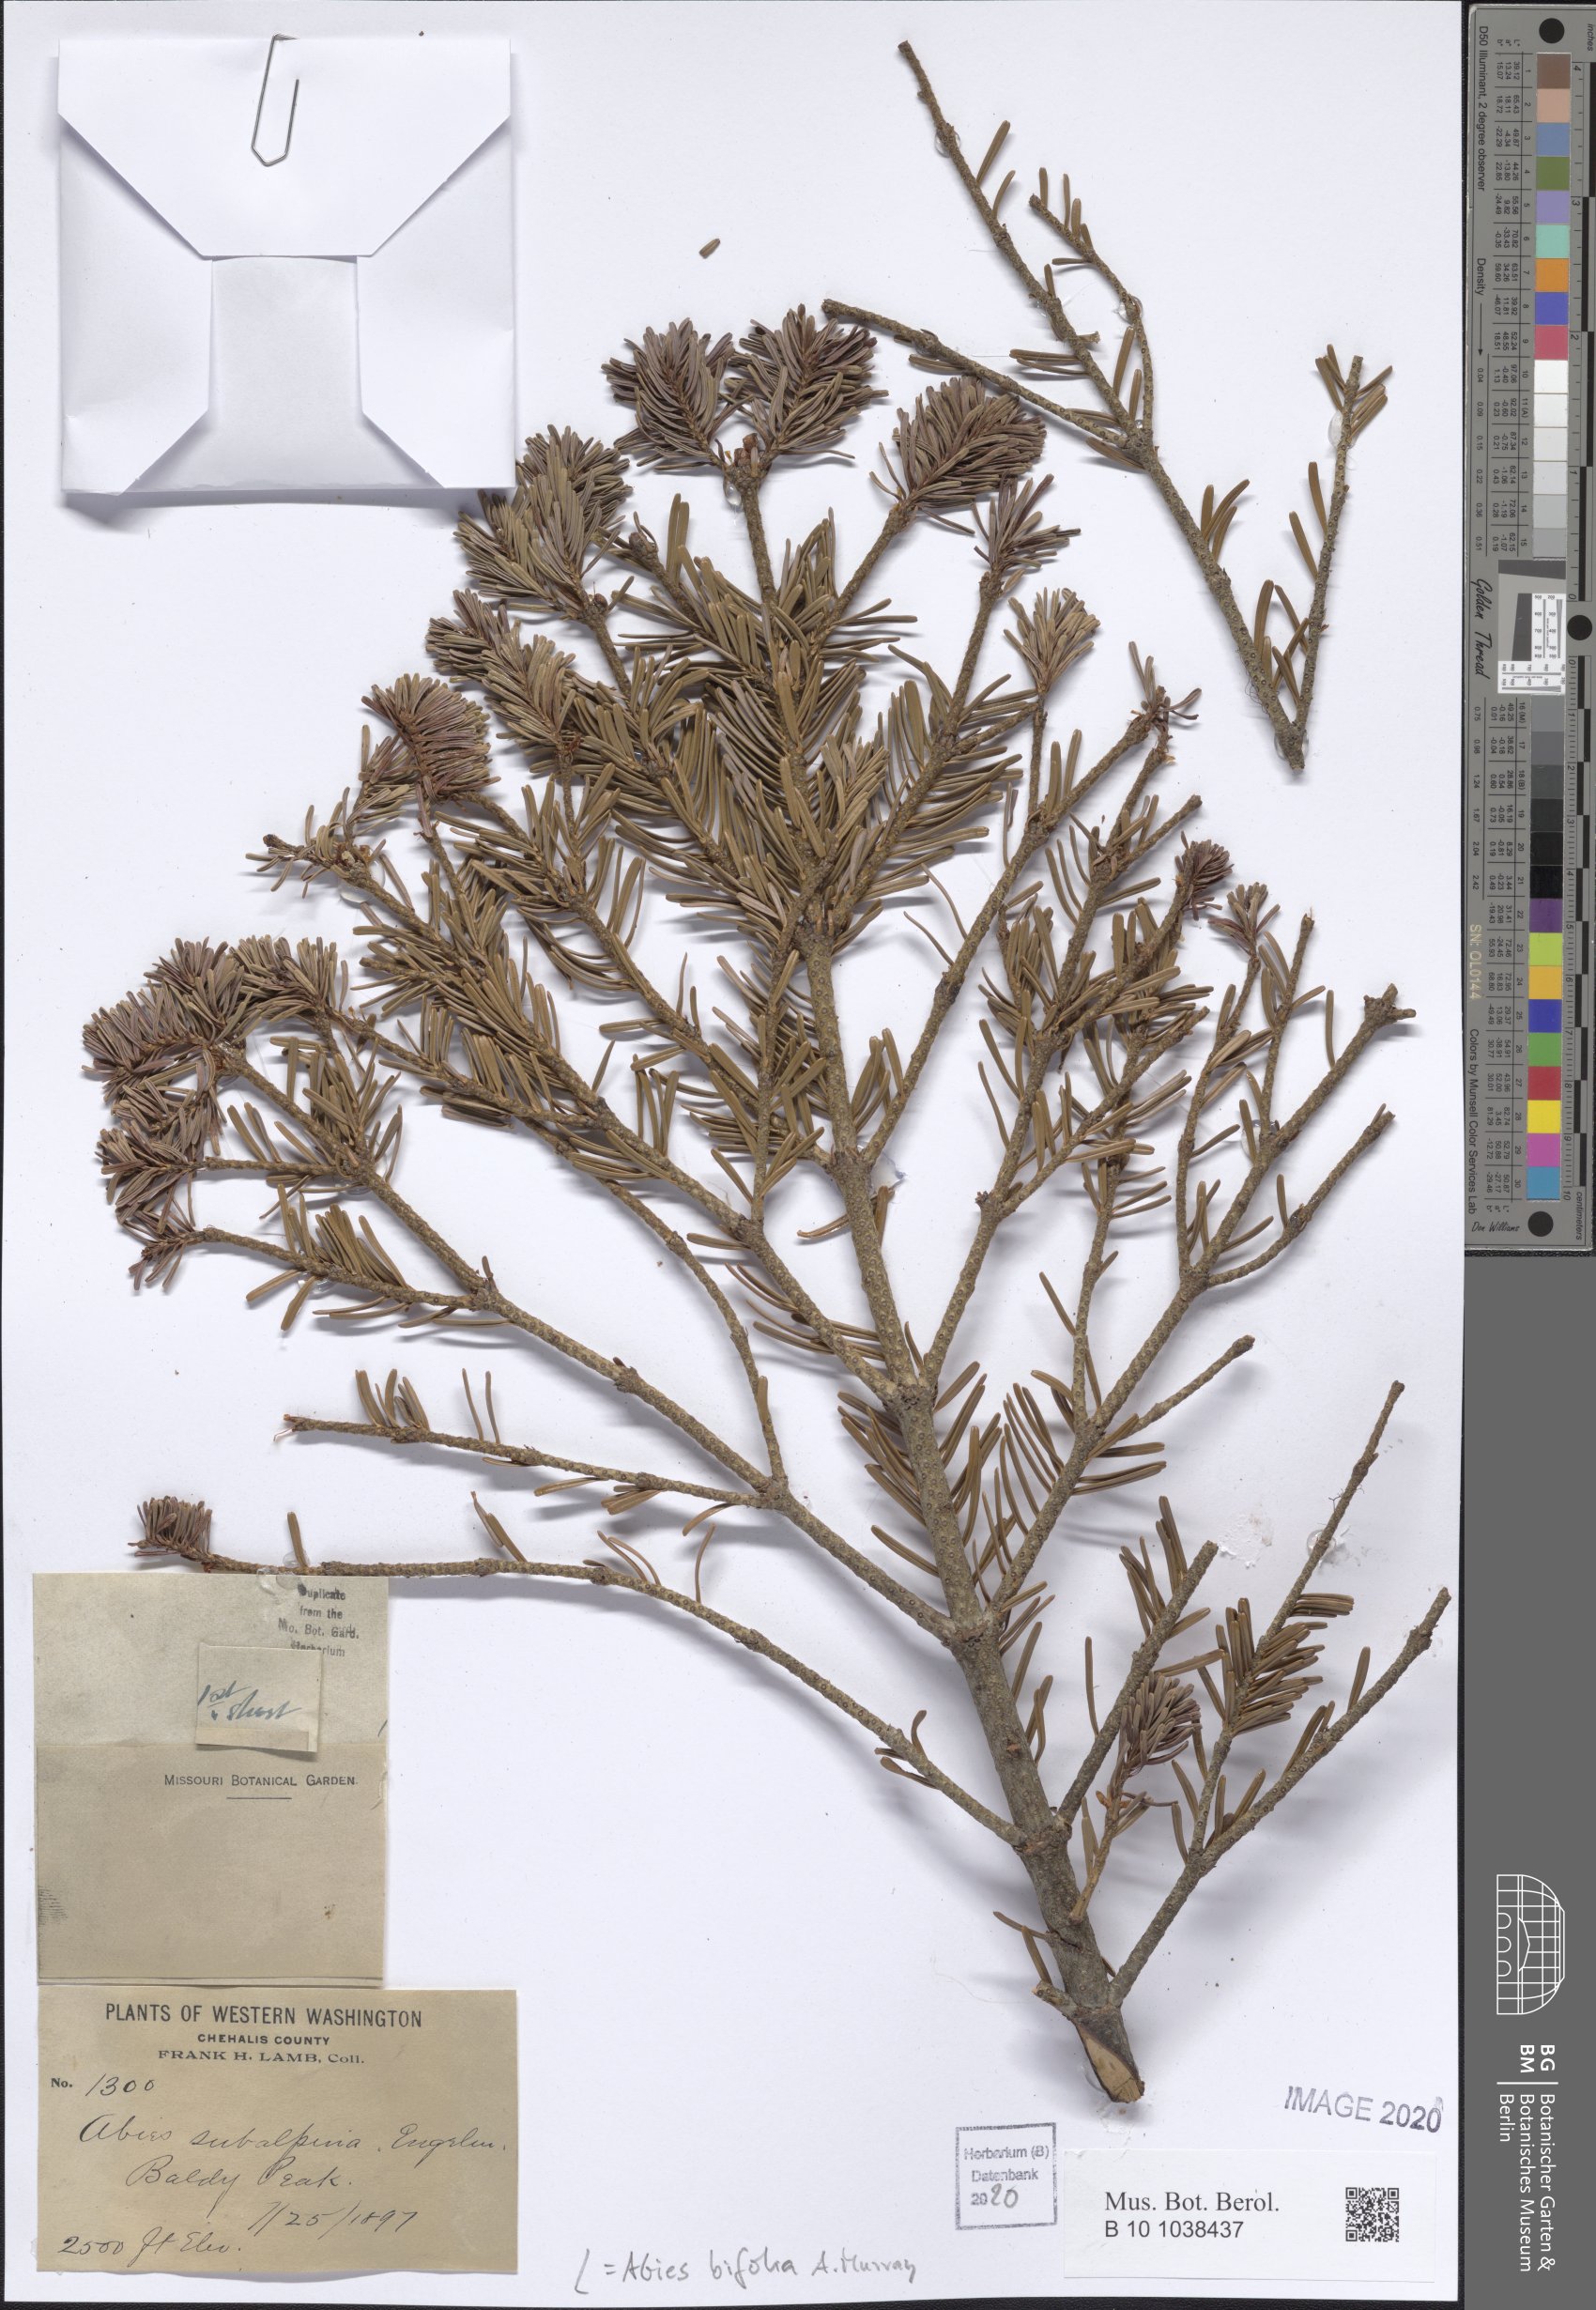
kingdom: Plantae
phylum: Tracheophyta
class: Pinopsida
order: Pinales
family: Pinaceae
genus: Abies
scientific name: Abies lasiocarpa
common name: Subalpine fir
